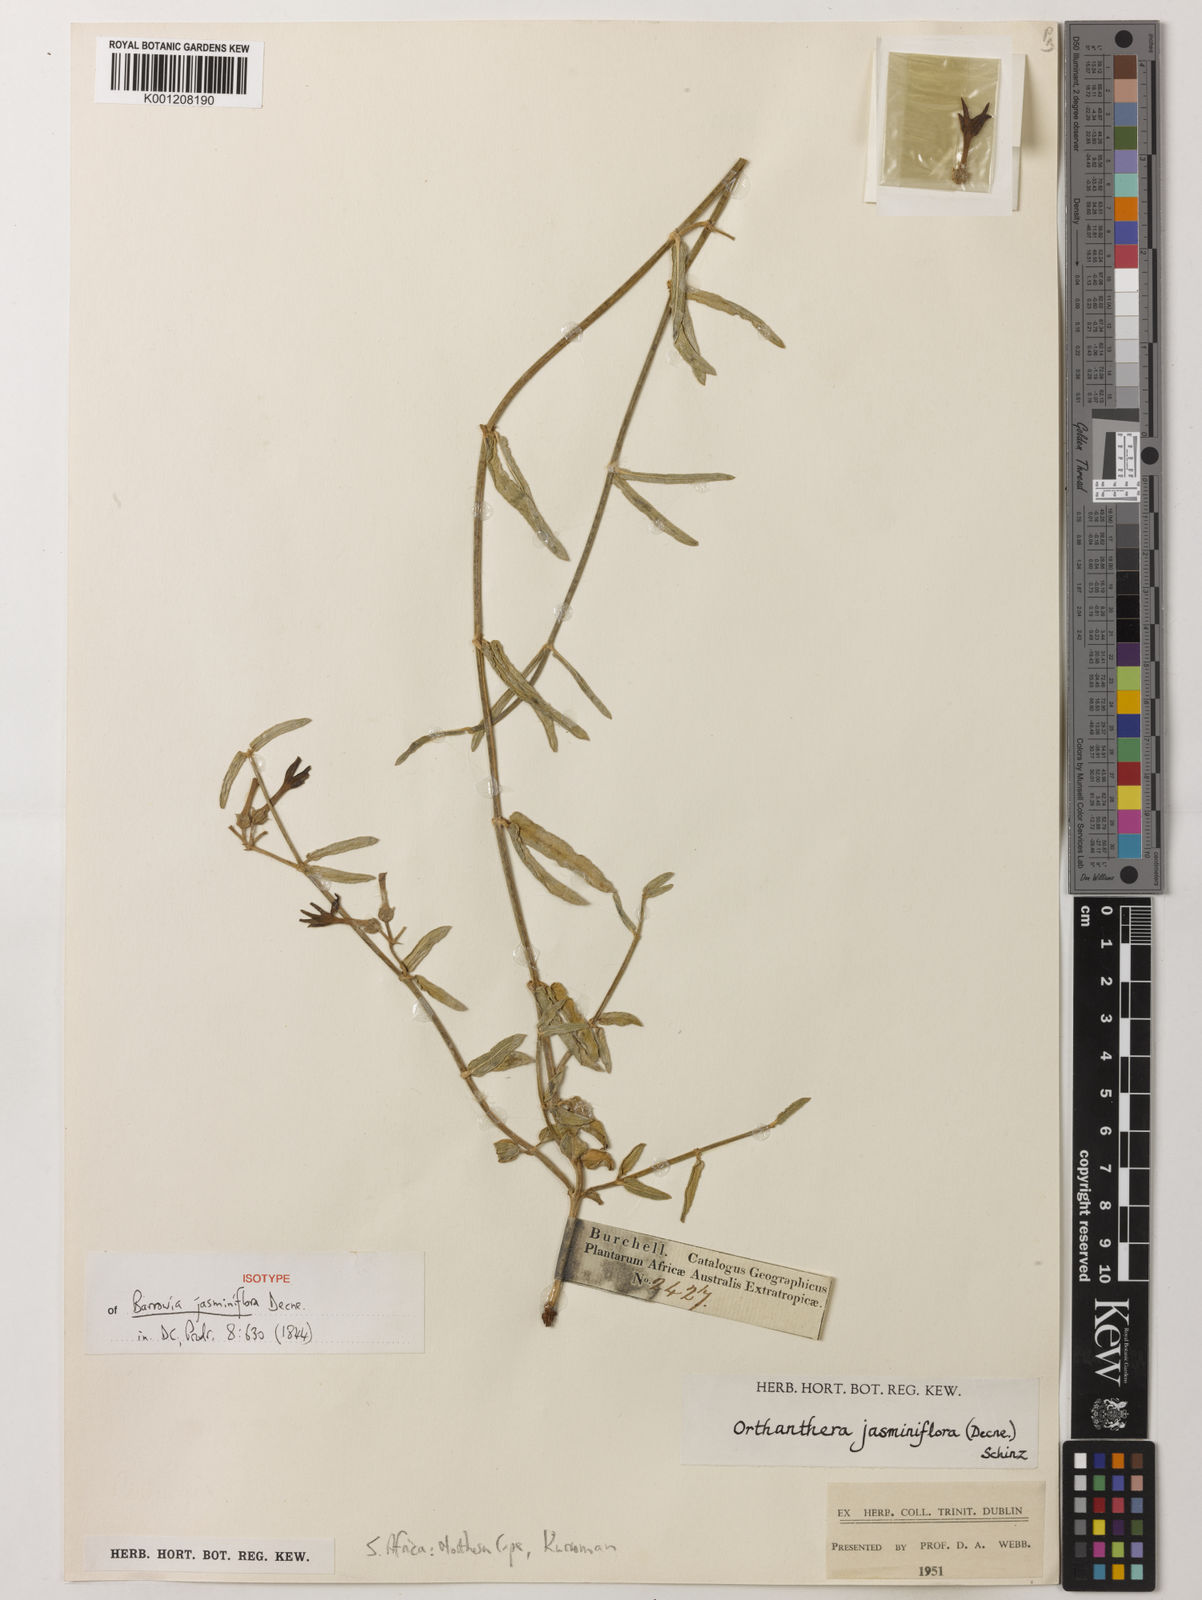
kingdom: Plantae
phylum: Tracheophyta
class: Magnoliopsida
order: Gentianales
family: Apocynaceae
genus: Orthanthera
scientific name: Orthanthera jasminiflora
